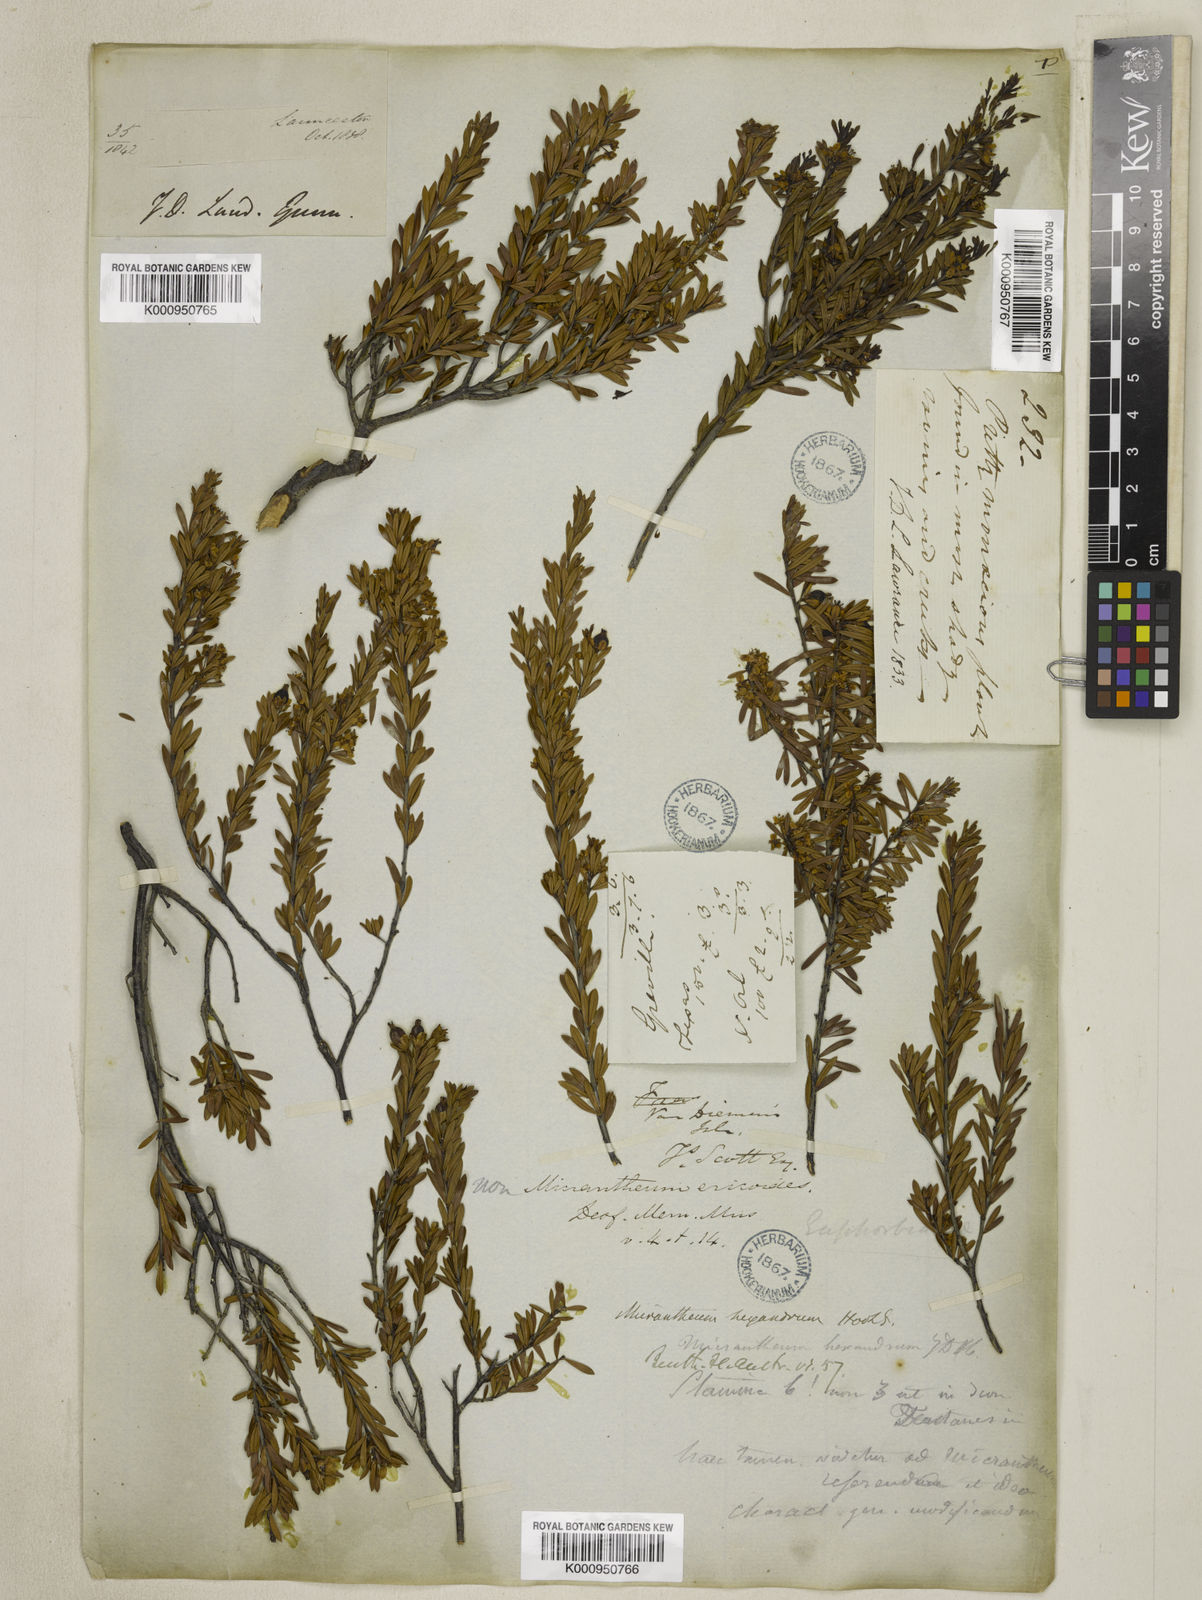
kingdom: Plantae
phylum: Tracheophyta
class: Magnoliopsida
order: Malpighiales
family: Picrodendraceae
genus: Micrantheum
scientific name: Micrantheum hexandrum
